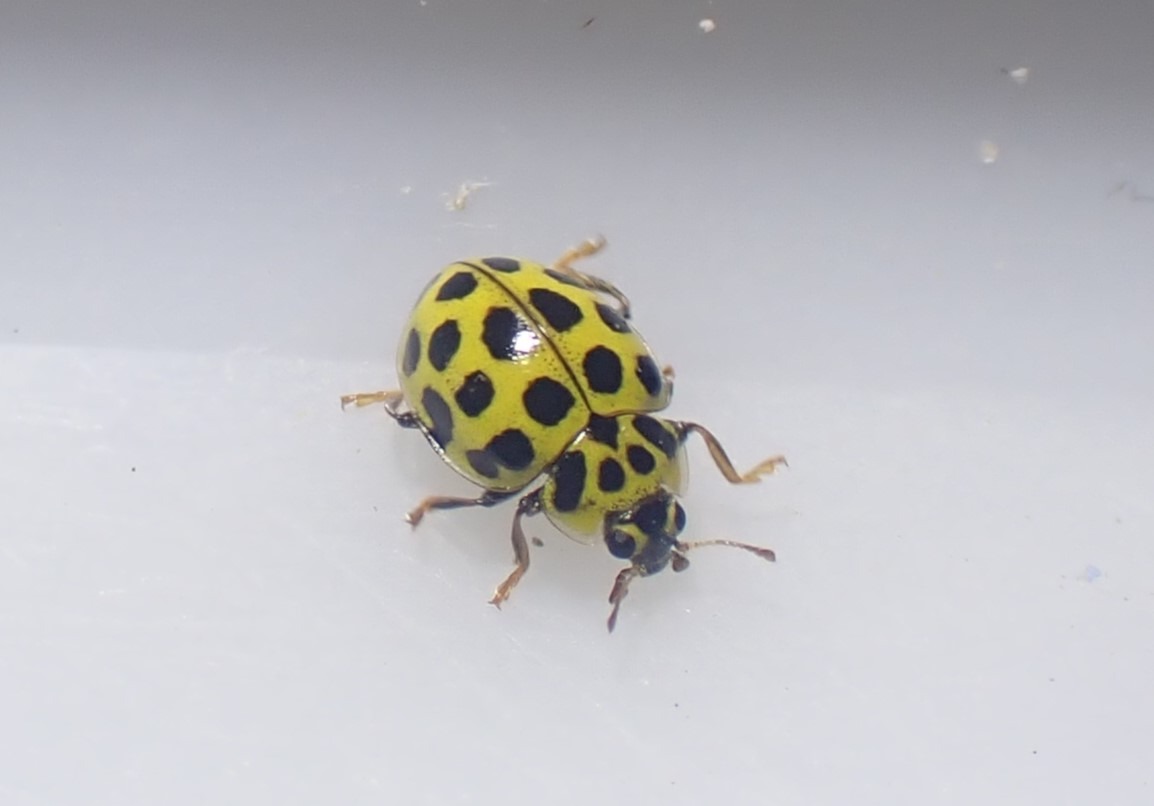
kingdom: Animalia
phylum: Arthropoda
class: Insecta
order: Coleoptera
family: Coccinellidae
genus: Psyllobora
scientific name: Psyllobora vigintiduopunctata
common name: Toogtyveplettet mariehøne
